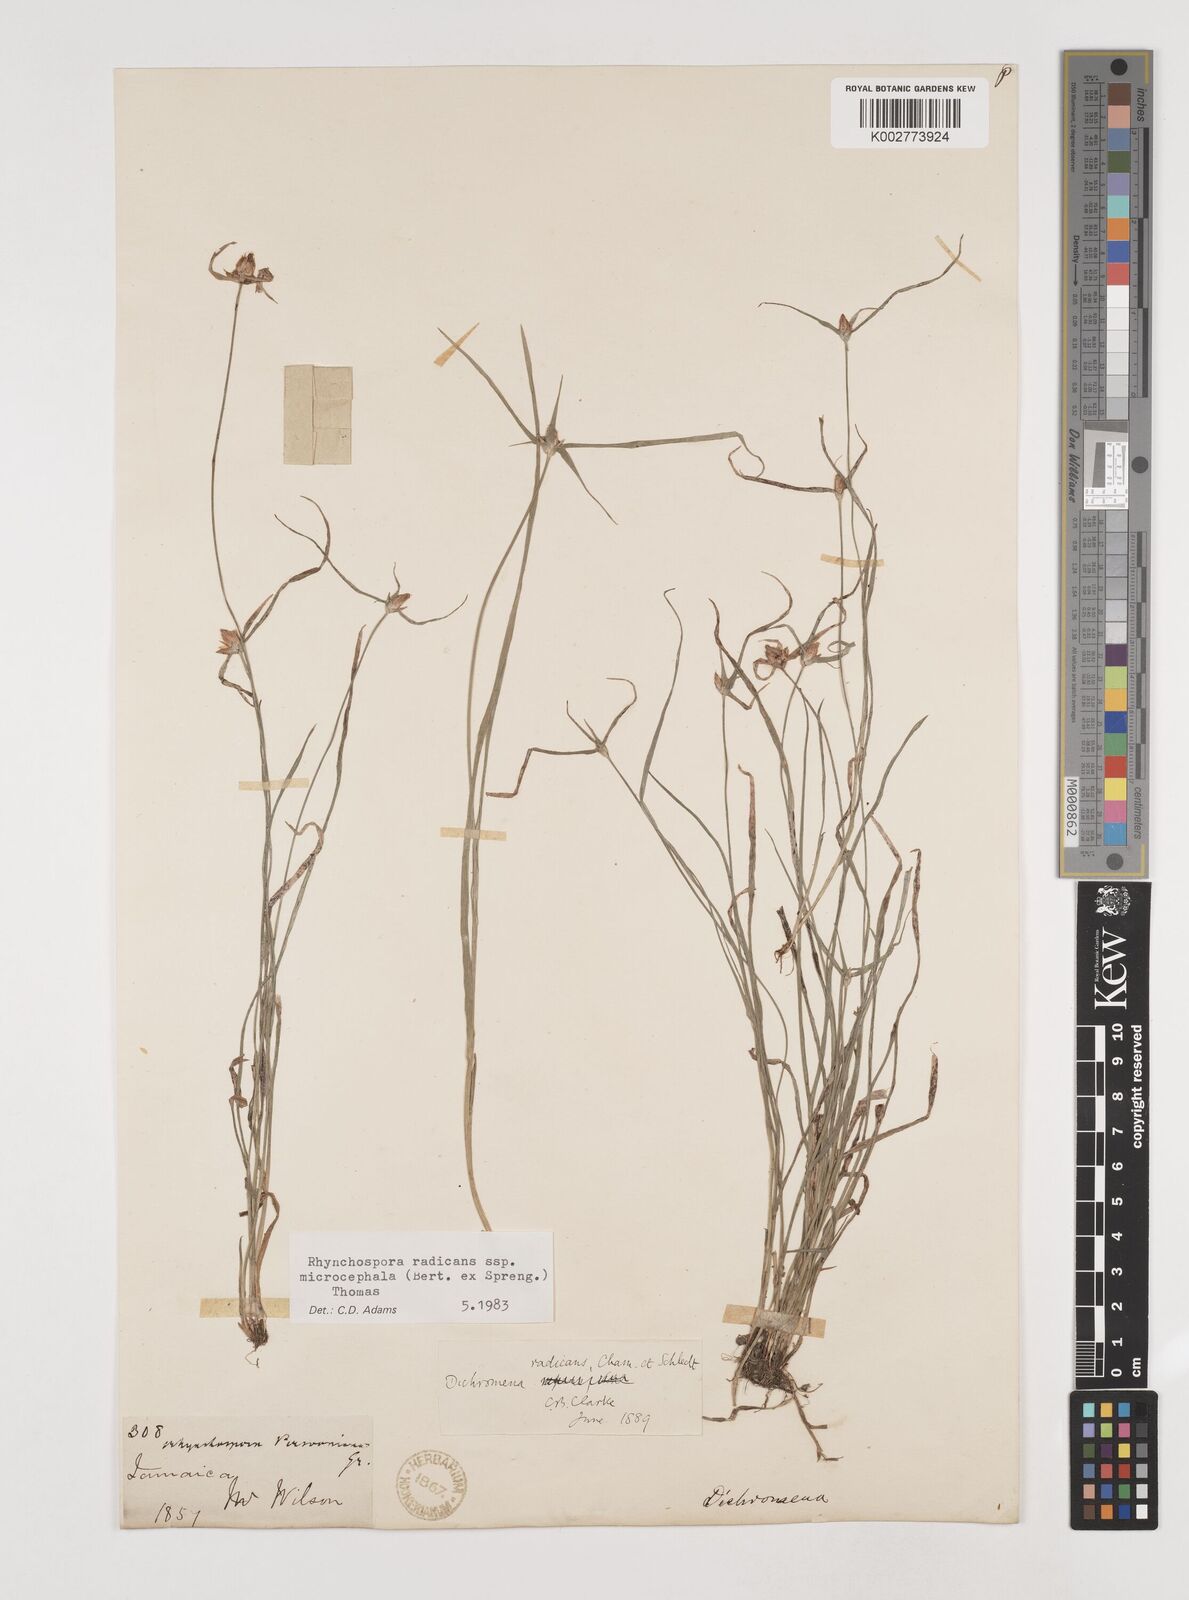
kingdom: Plantae
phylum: Tracheophyta
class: Liliopsida
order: Poales
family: Cyperaceae
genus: Rhynchospora
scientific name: Rhynchospora radicans
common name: Tropical whitetop
